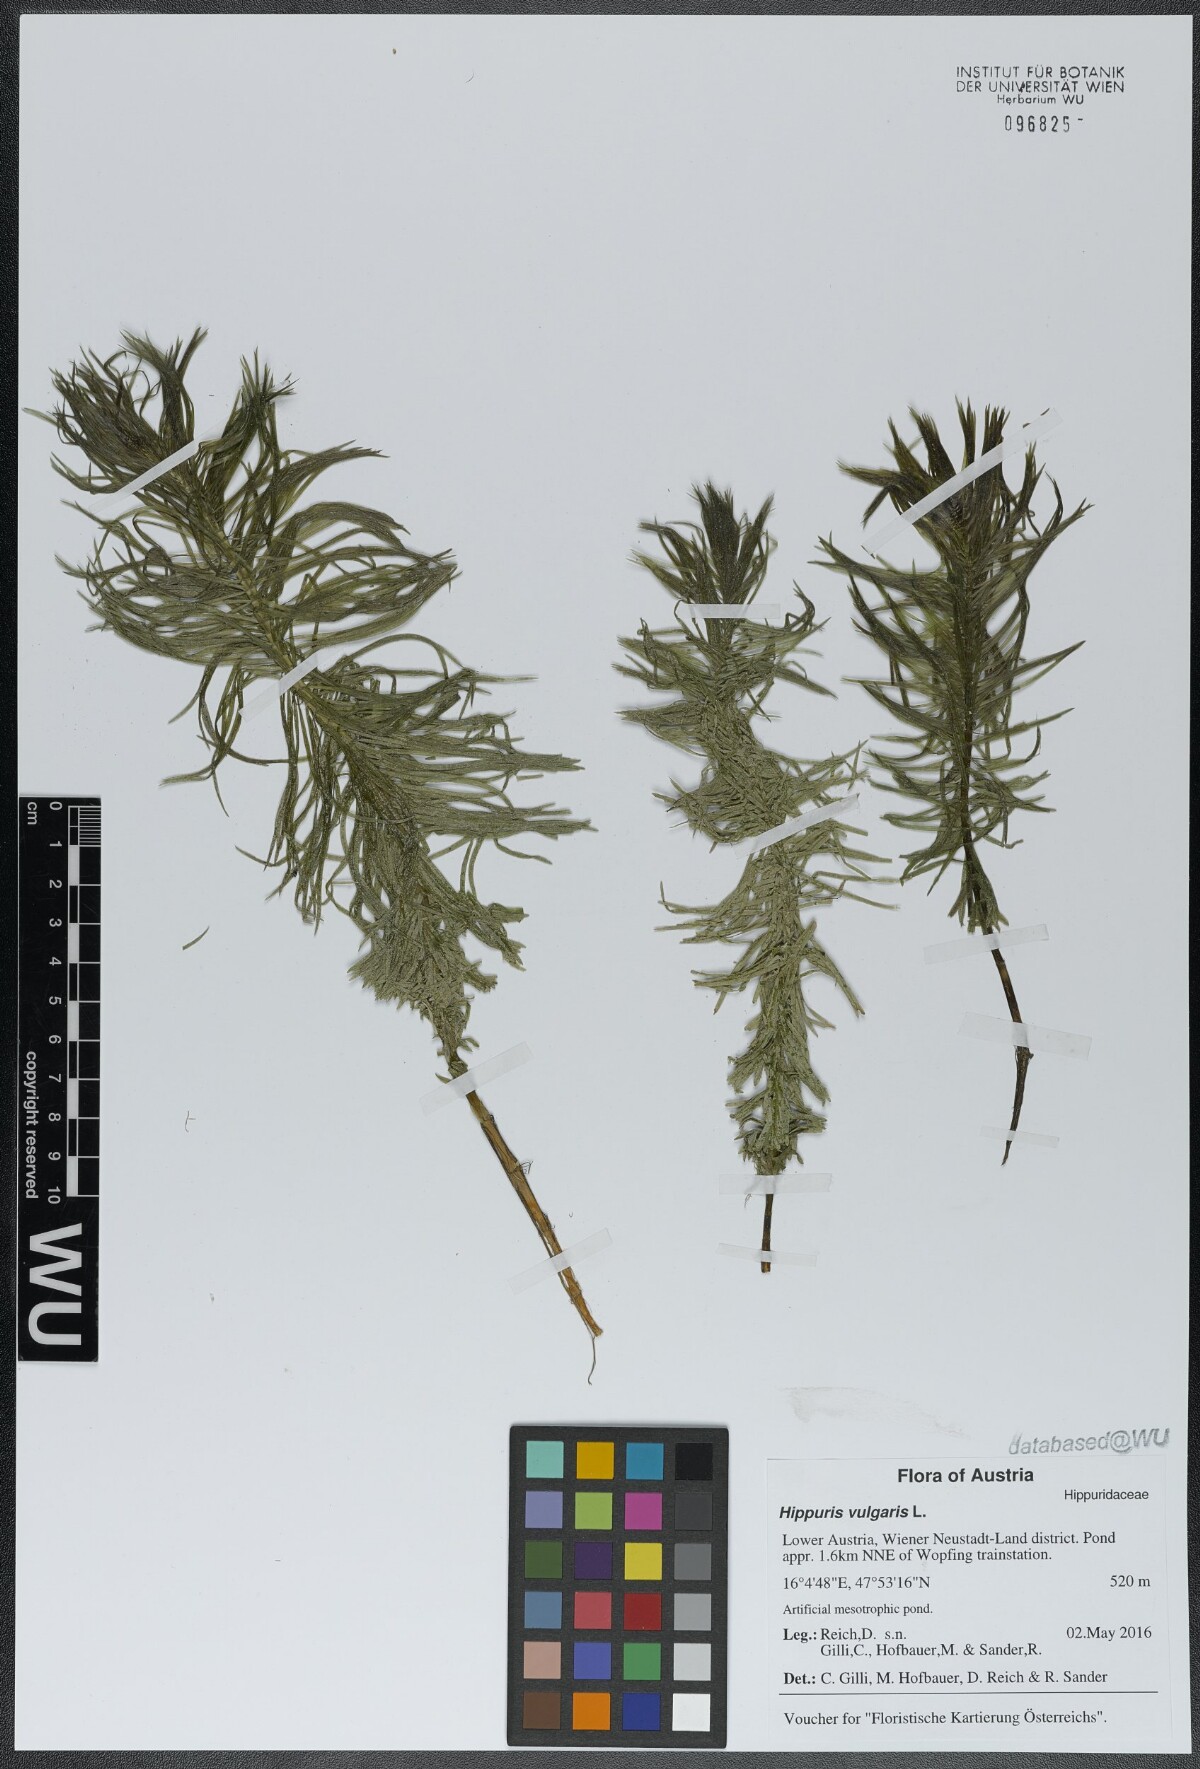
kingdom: Plantae
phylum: Tracheophyta
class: Magnoliopsida
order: Lamiales
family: Plantaginaceae
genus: Hippuris
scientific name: Hippuris vulgaris
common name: Mare's-tail
